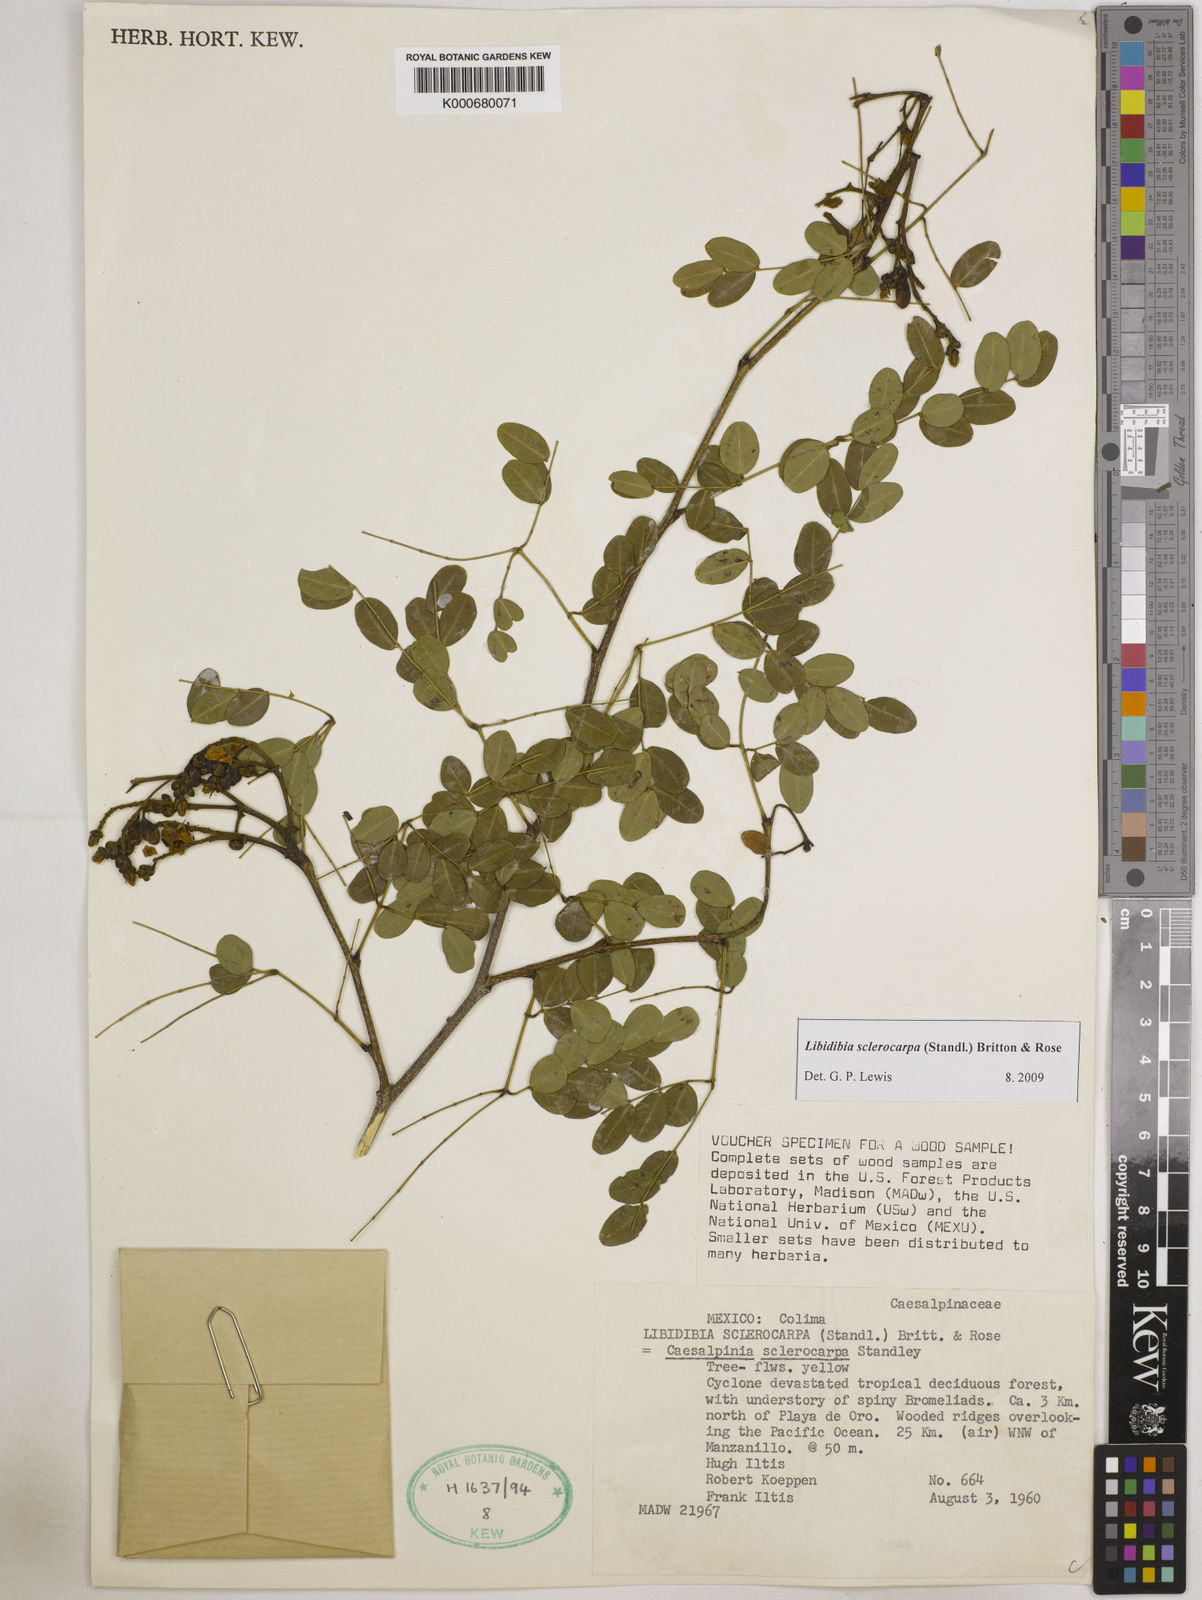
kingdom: Plantae
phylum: Tracheophyta
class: Magnoliopsida
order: Fabales
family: Fabaceae
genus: Libidibia
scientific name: Libidibia sclerocarpa
